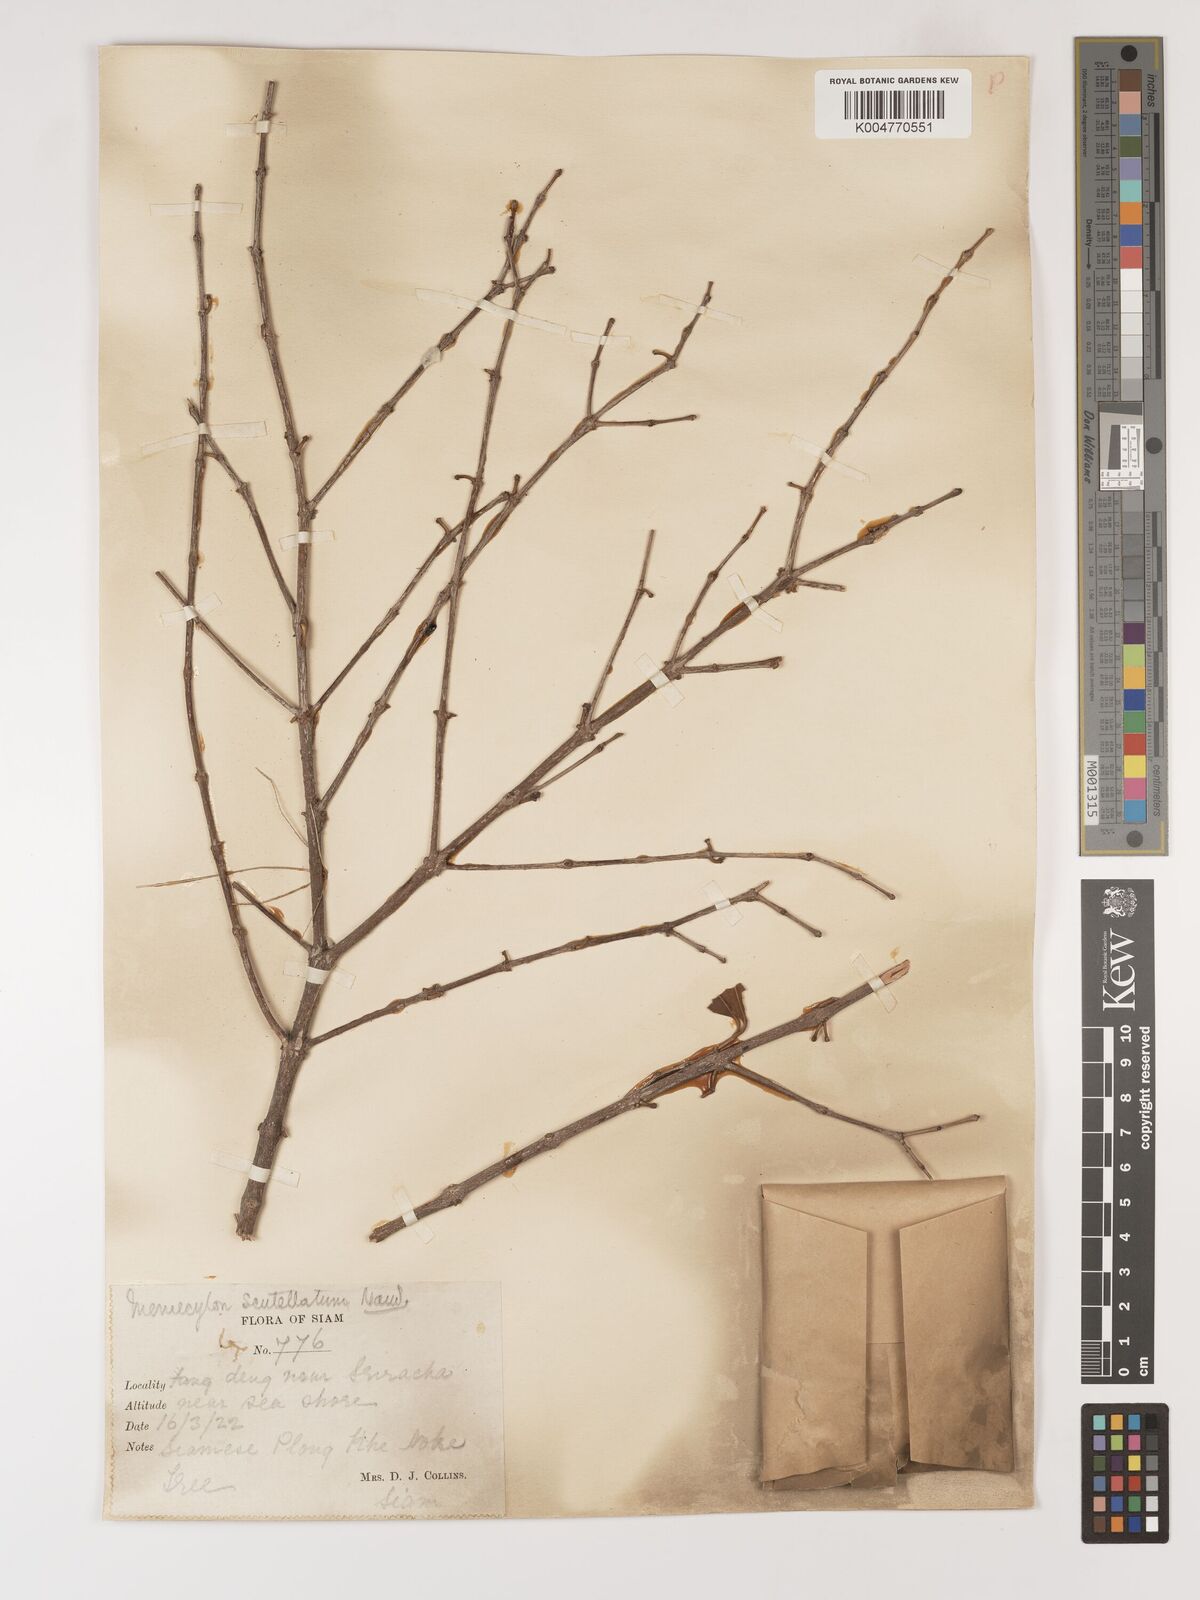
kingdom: Plantae
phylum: Tracheophyta
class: Magnoliopsida
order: Myrtales
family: Melastomataceae
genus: Memecylon
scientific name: Memecylon scutellatum
